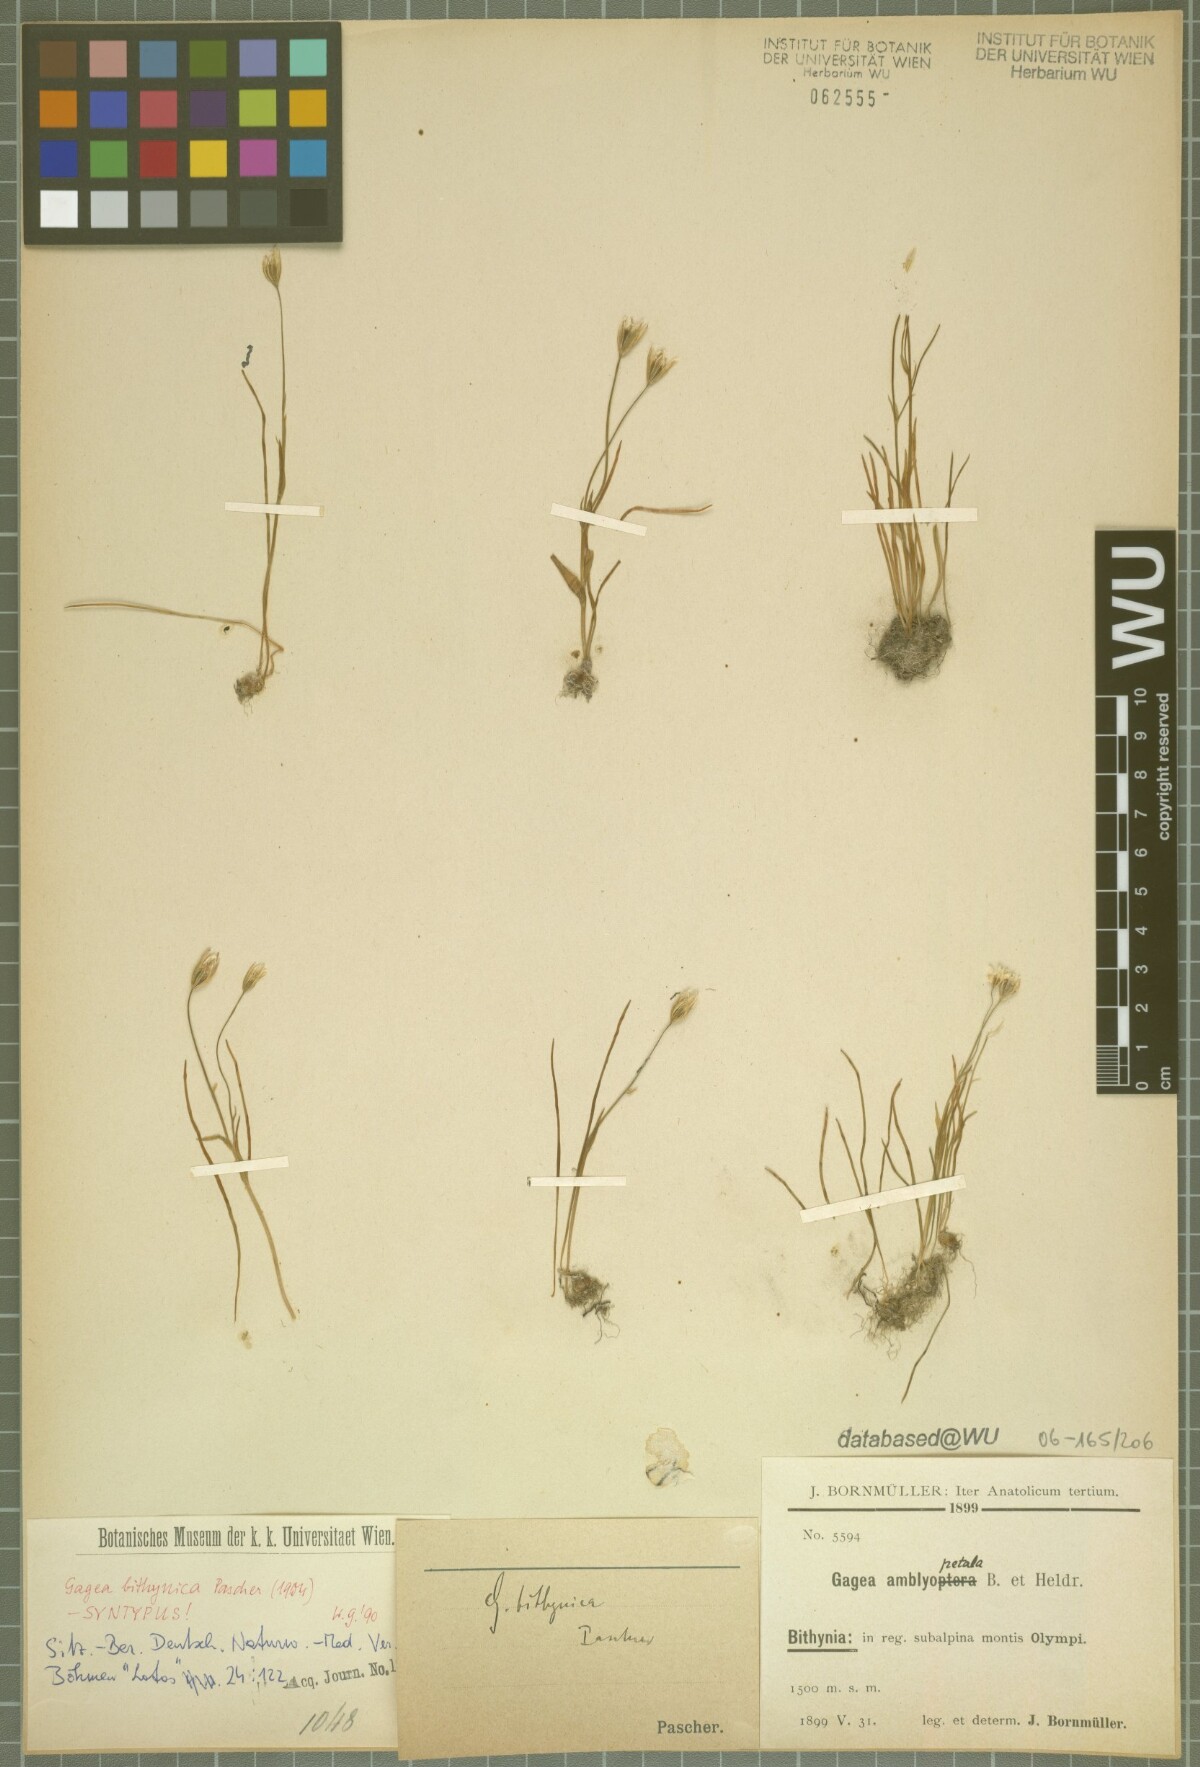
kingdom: Plantae
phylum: Tracheophyta
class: Liliopsida
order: Liliales
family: Liliaceae
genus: Gagea
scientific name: Gagea bithynica
